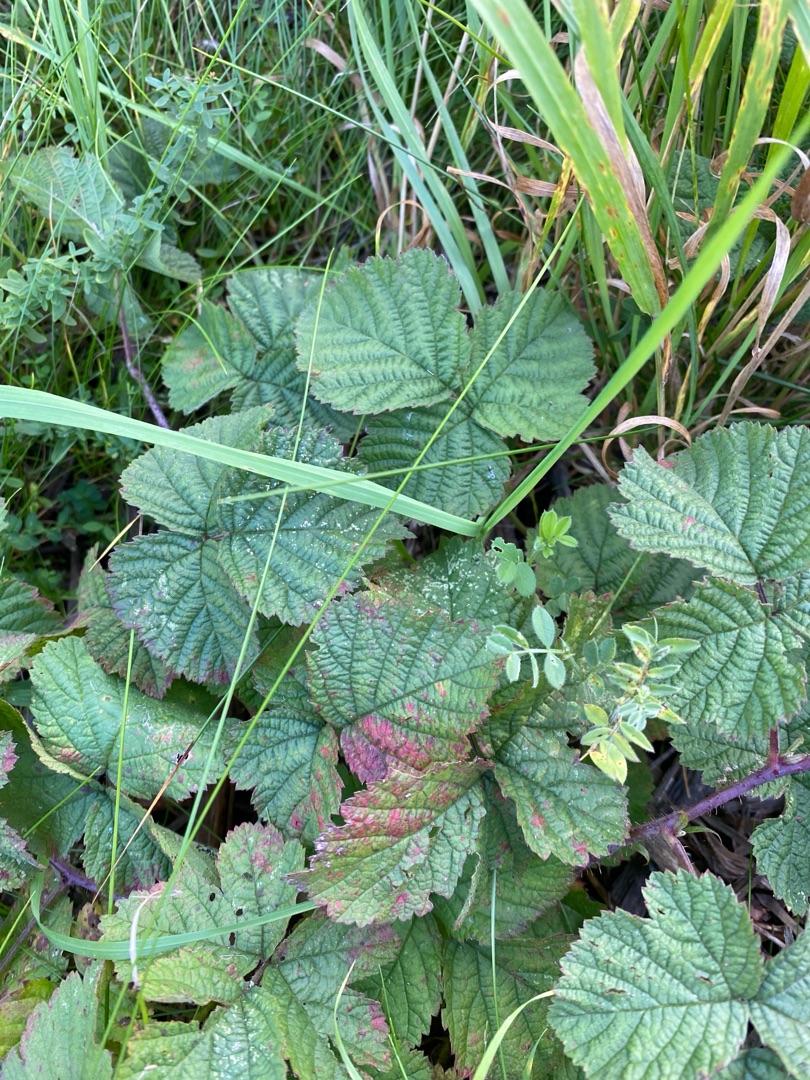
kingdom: Plantae
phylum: Tracheophyta
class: Magnoliopsida
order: Rosales
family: Rosaceae
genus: Rubus
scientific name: Rubus caesius
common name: Korbær
